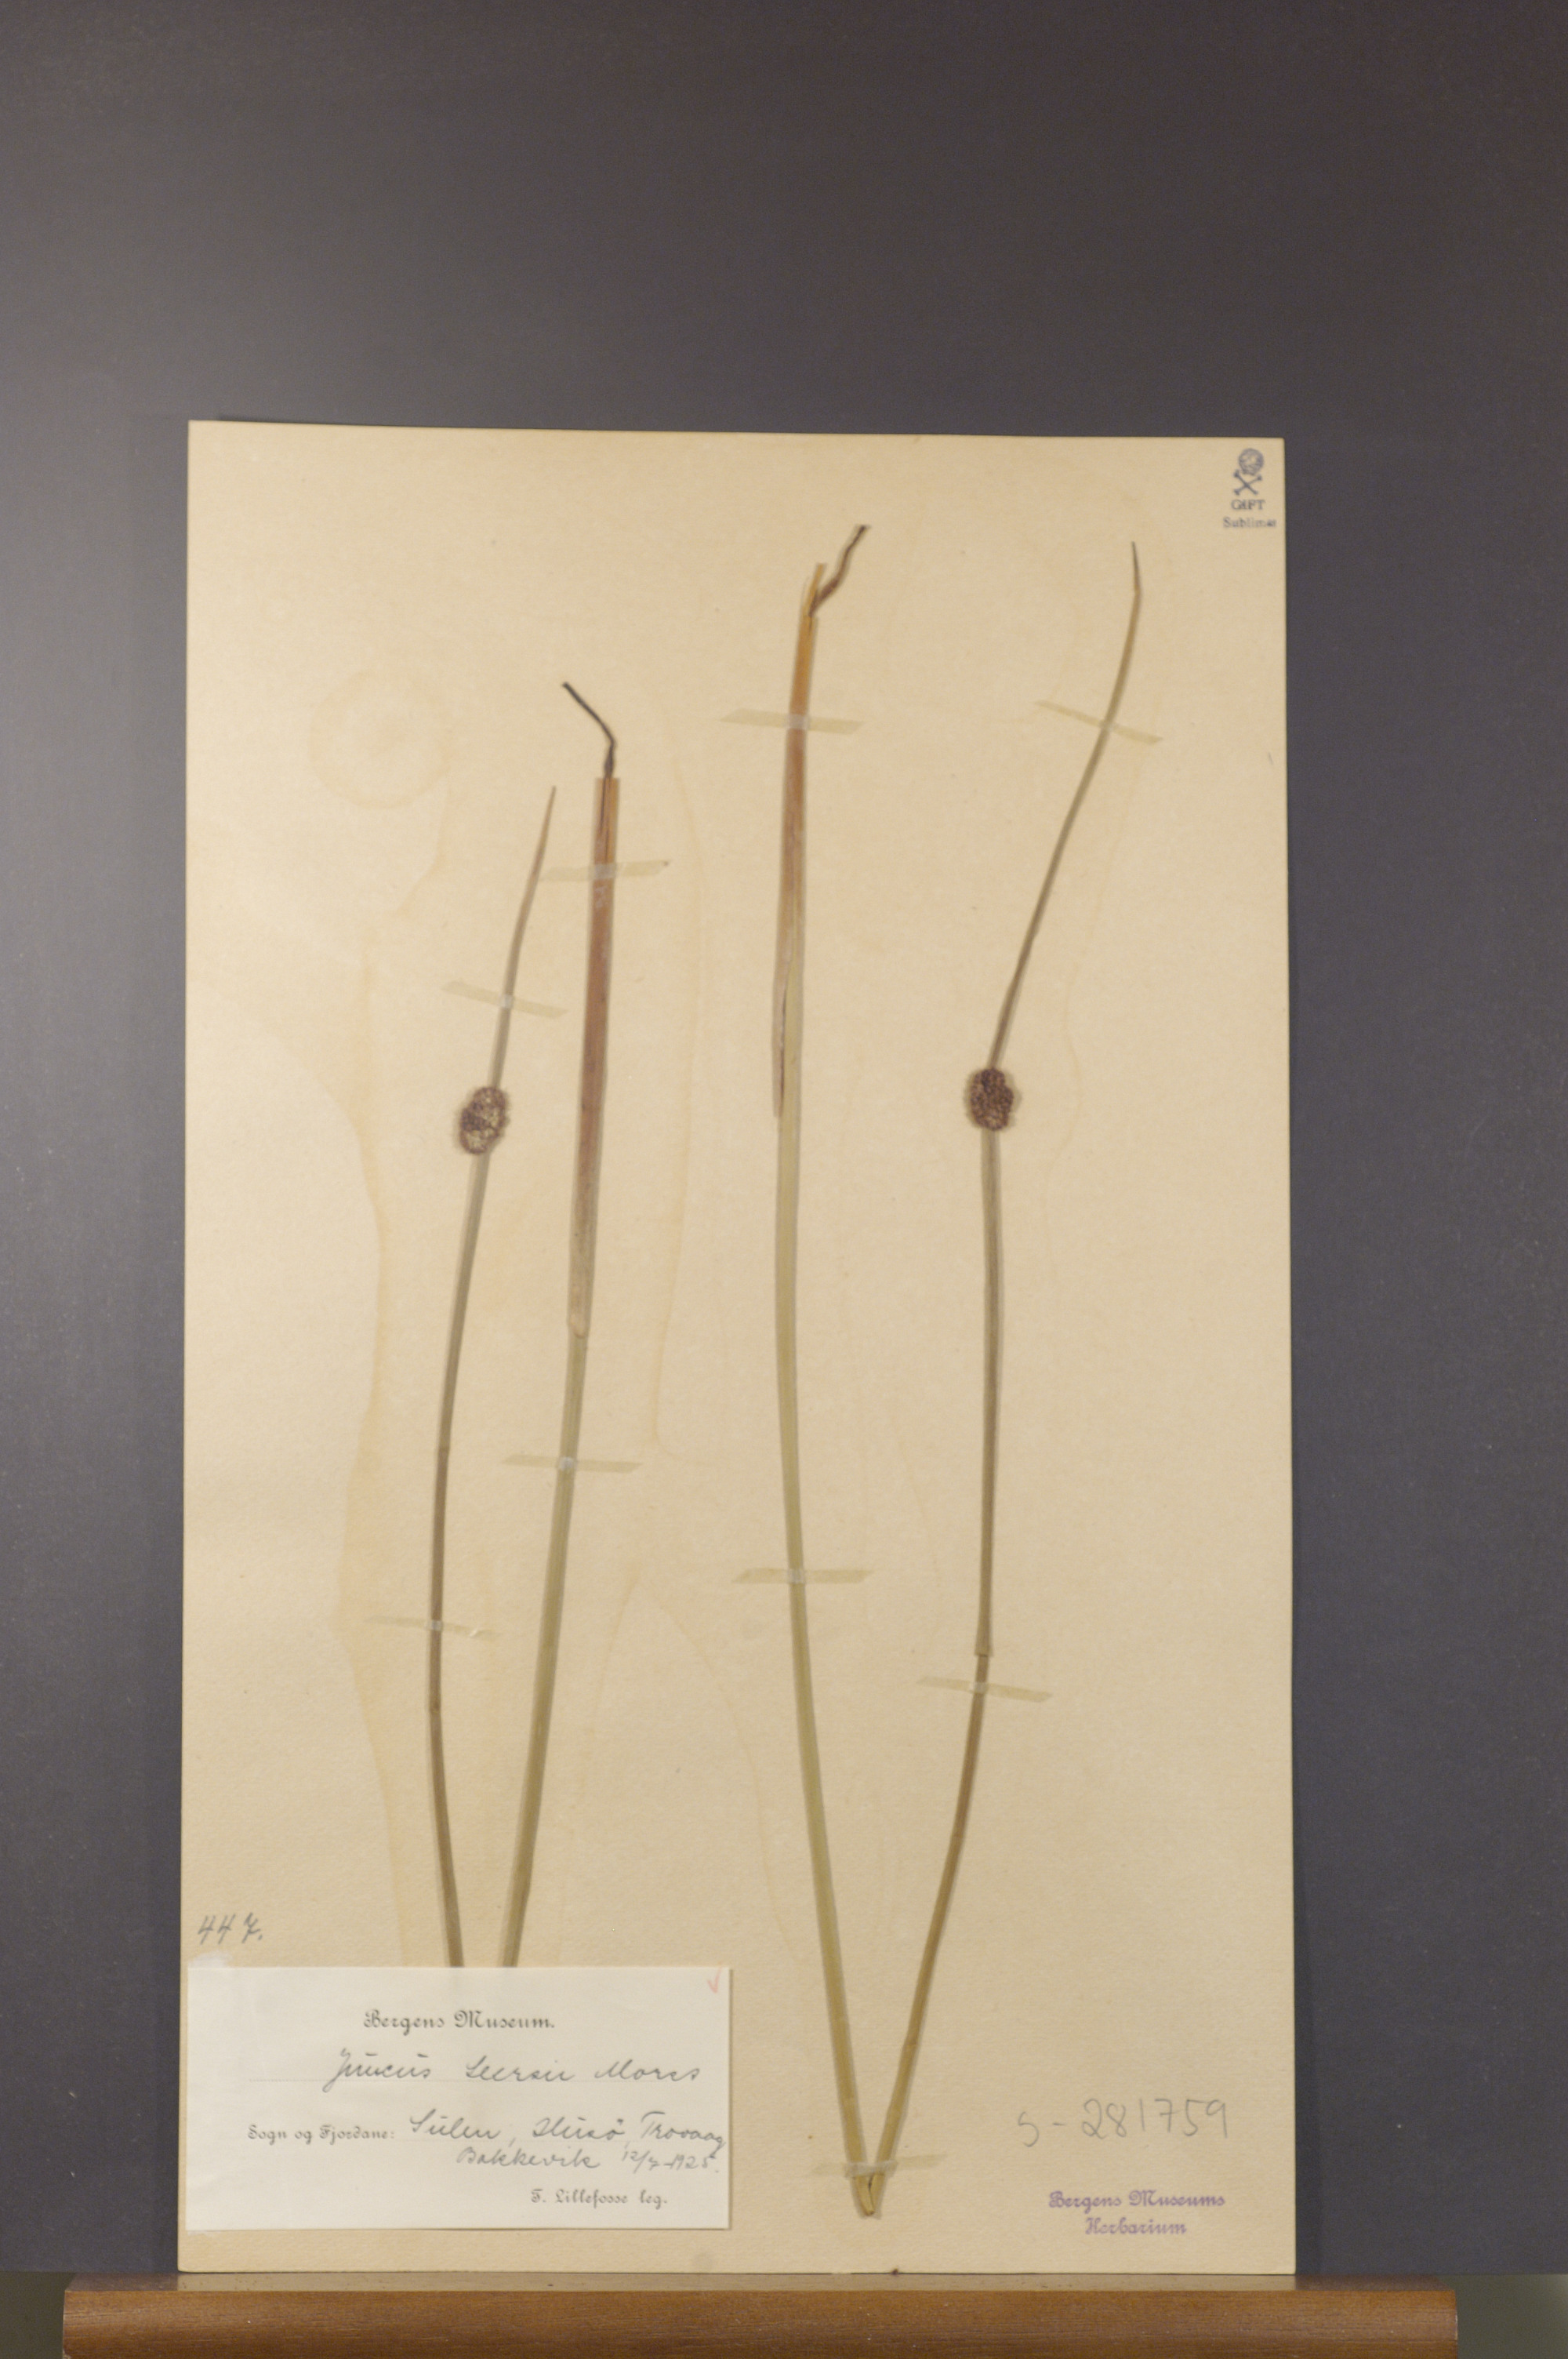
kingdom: Plantae
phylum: Tracheophyta
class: Liliopsida
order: Poales
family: Juncaceae
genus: Juncus
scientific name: Juncus conglomeratus
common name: Compact rush
